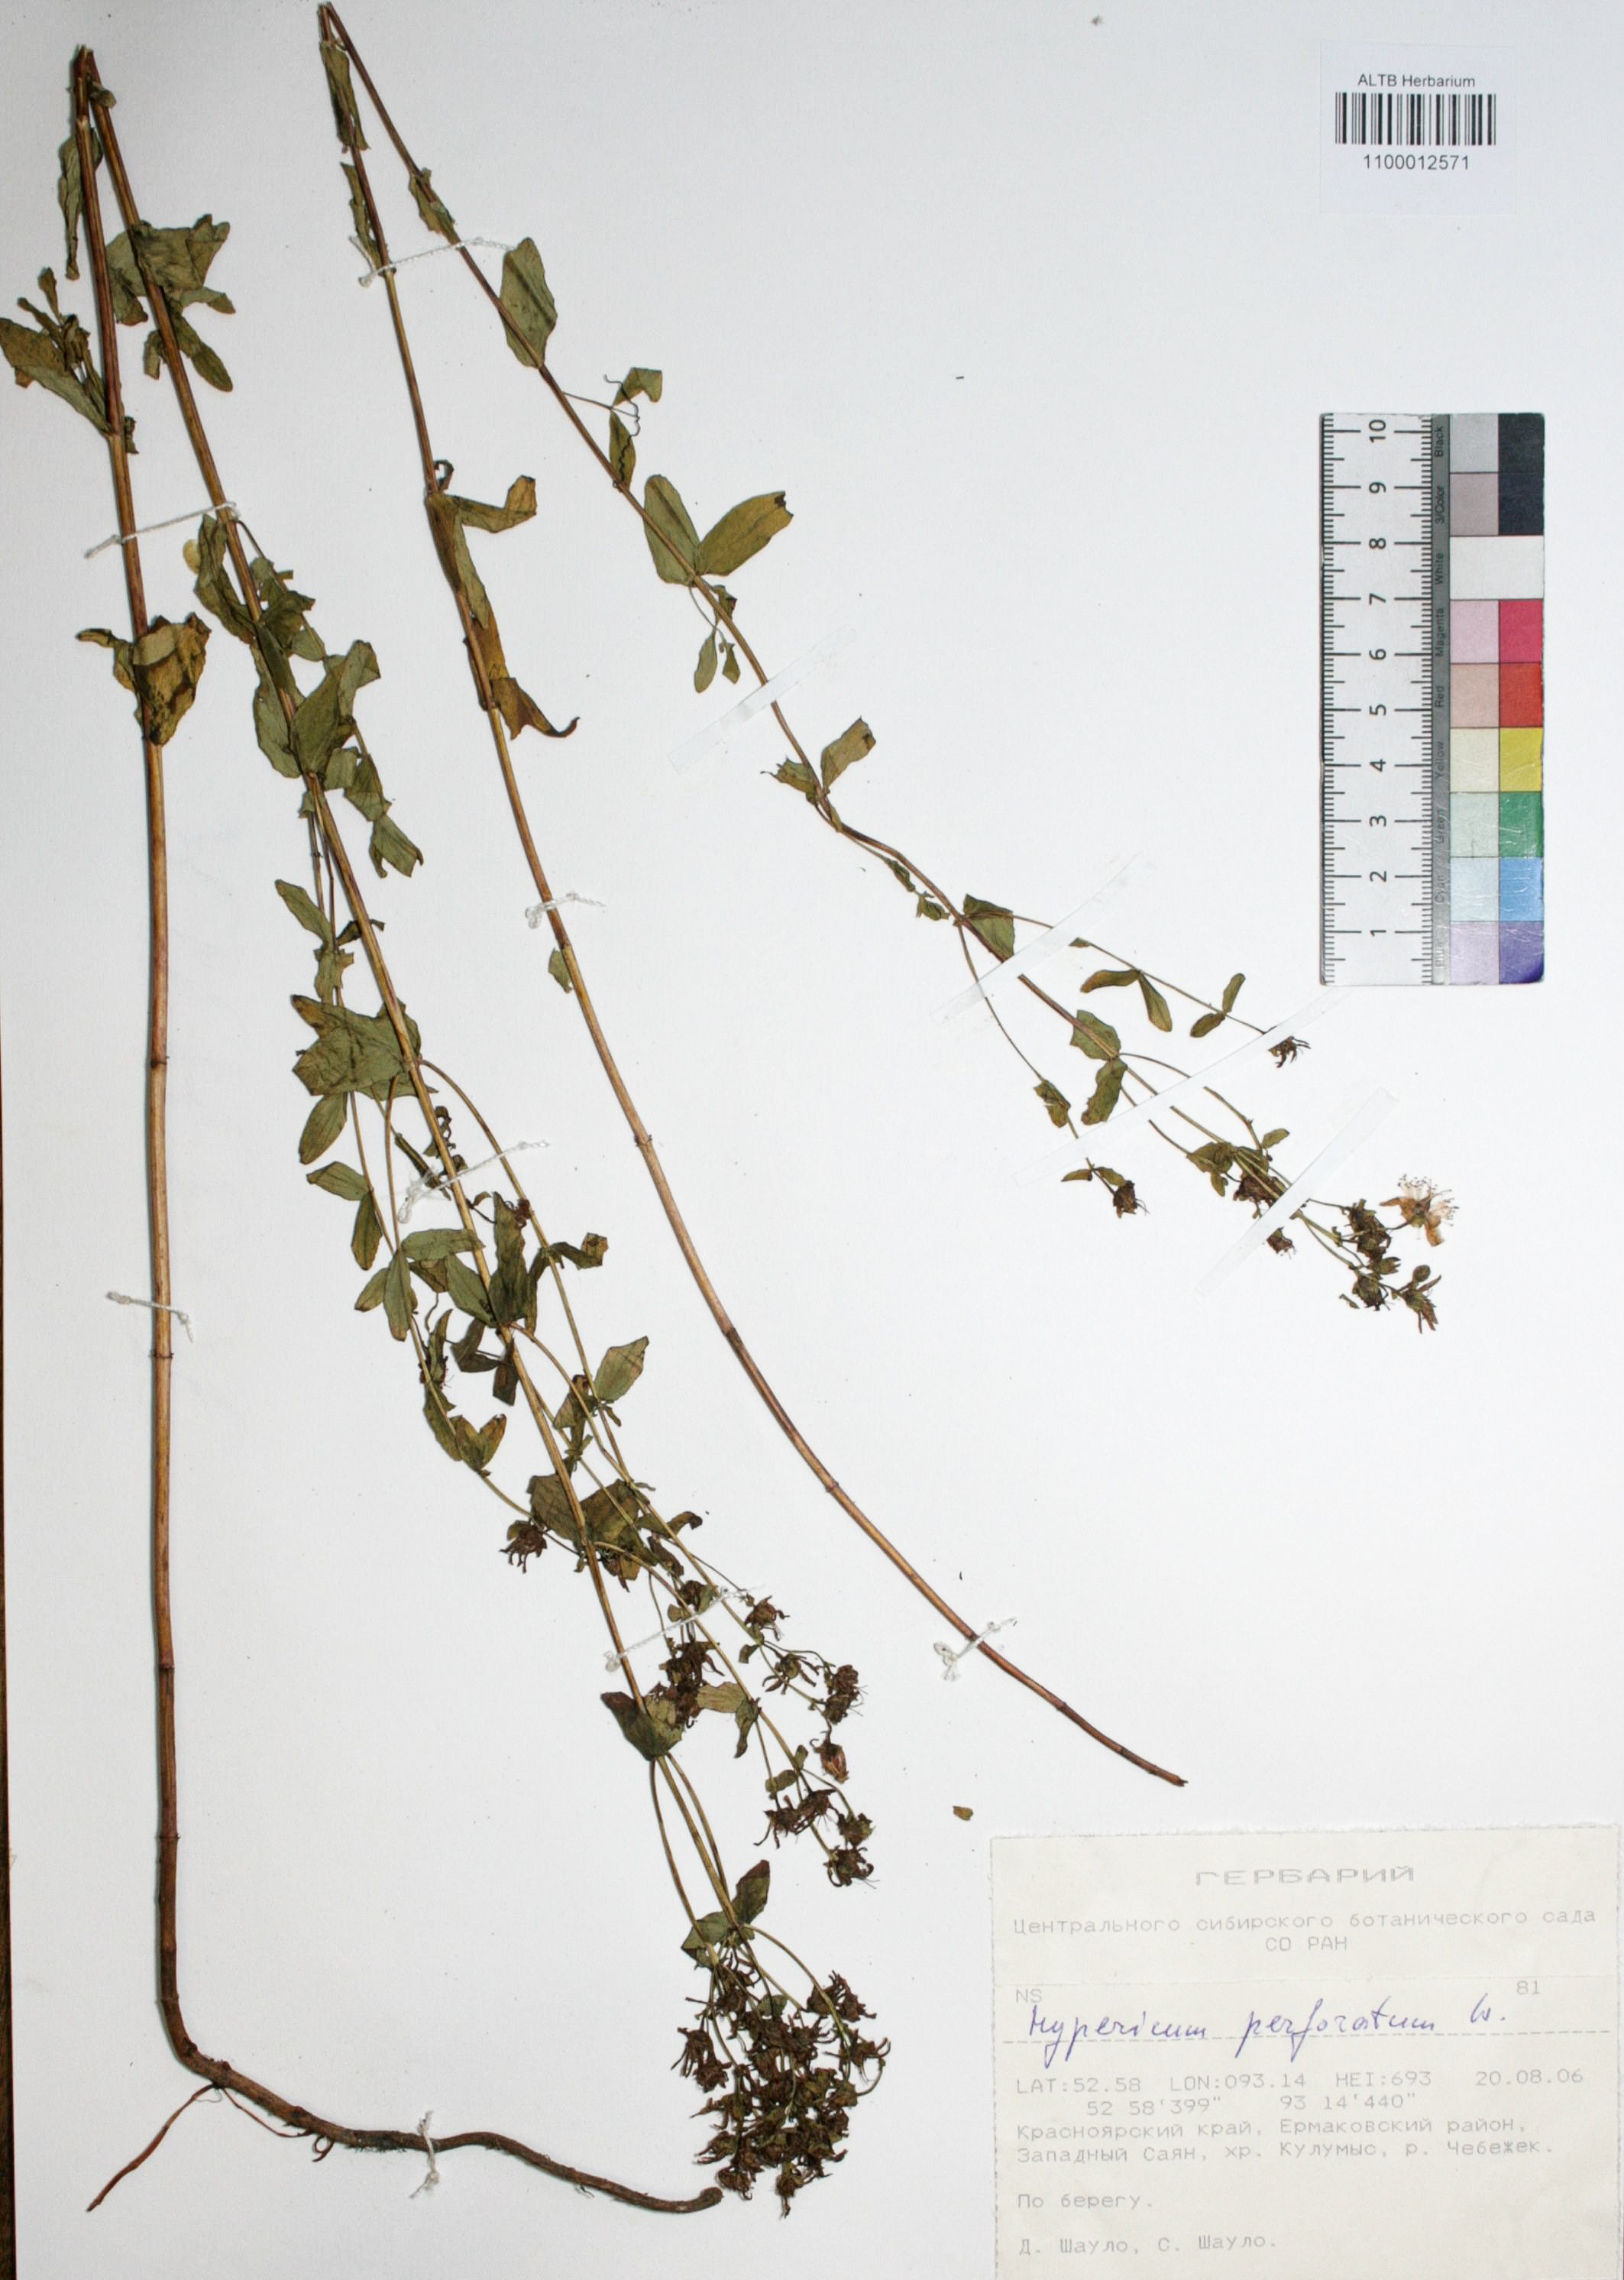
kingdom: Plantae
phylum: Tracheophyta
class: Magnoliopsida
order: Malpighiales
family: Hypericaceae
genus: Hypericum
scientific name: Hypericum perforatum
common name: Common st. johnswort
